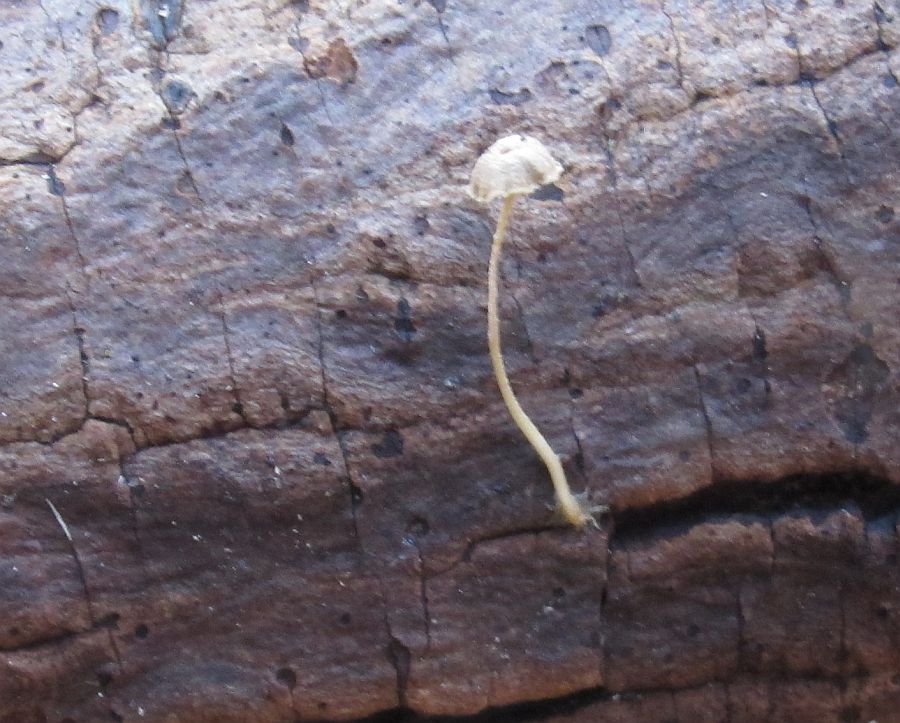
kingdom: Fungi
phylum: Basidiomycota
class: Agaricomycetes
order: Agaricales
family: Porotheleaceae
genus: Phloeomana
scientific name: Phloeomana speirea
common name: kvist-huesvamp
